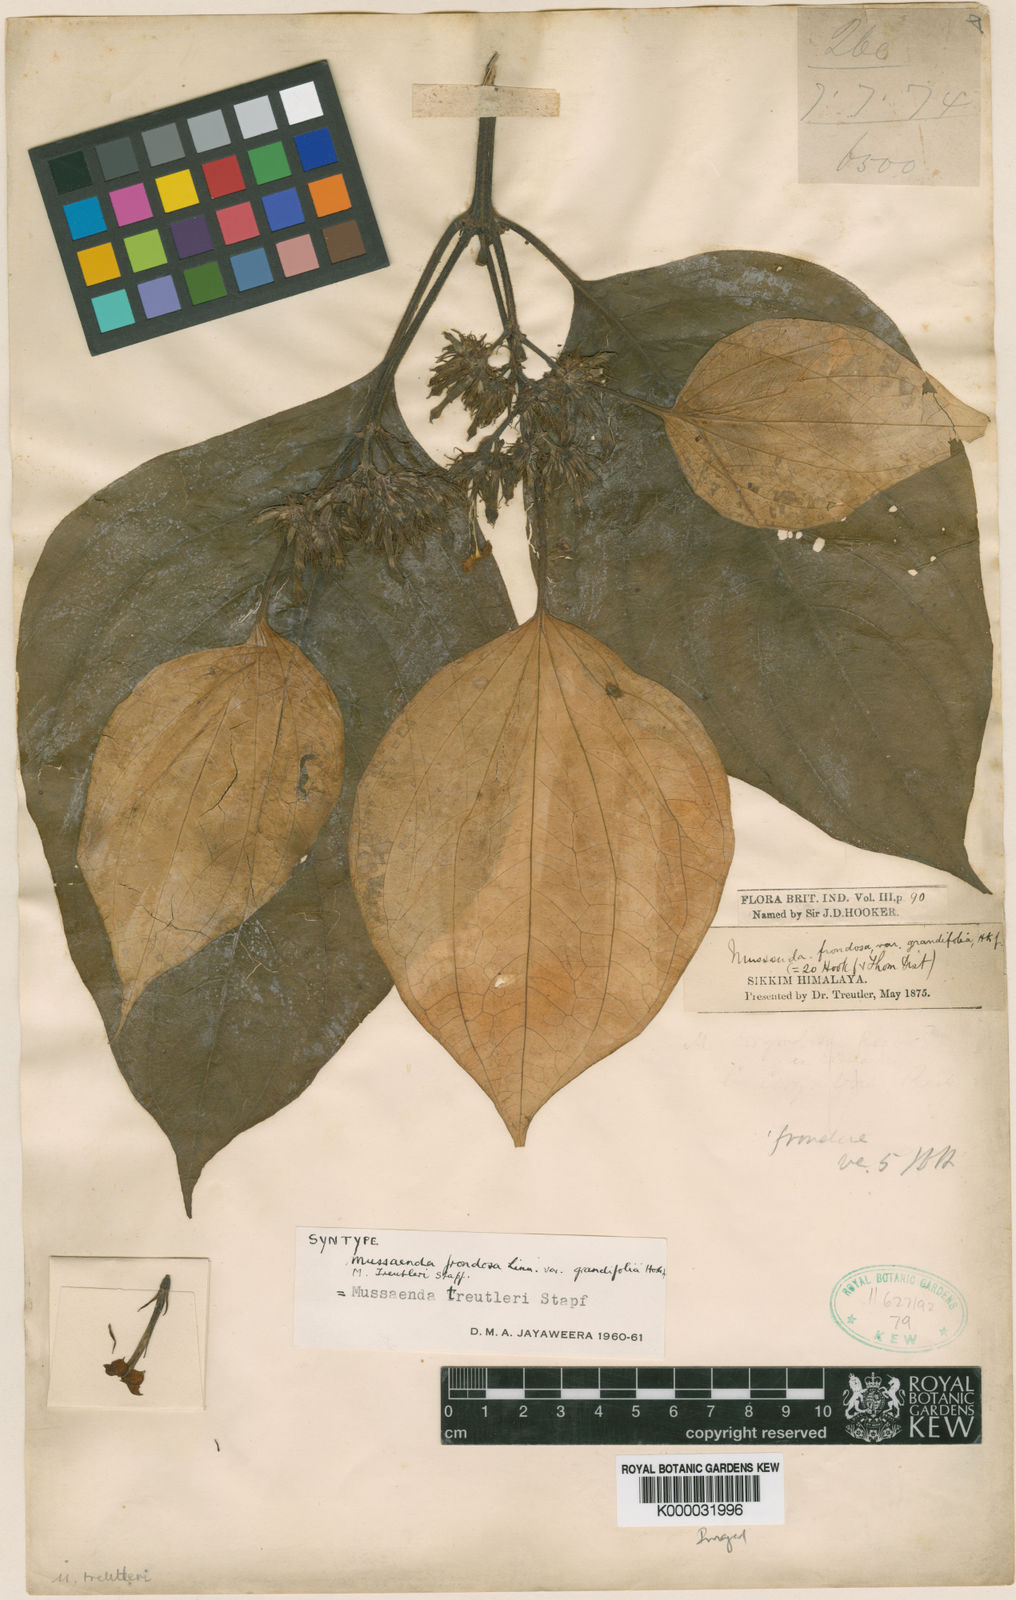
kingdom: Plantae
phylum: Tracheophyta
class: Magnoliopsida
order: Gentianales
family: Rubiaceae
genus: Mussaenda
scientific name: Mussaenda treutleri
